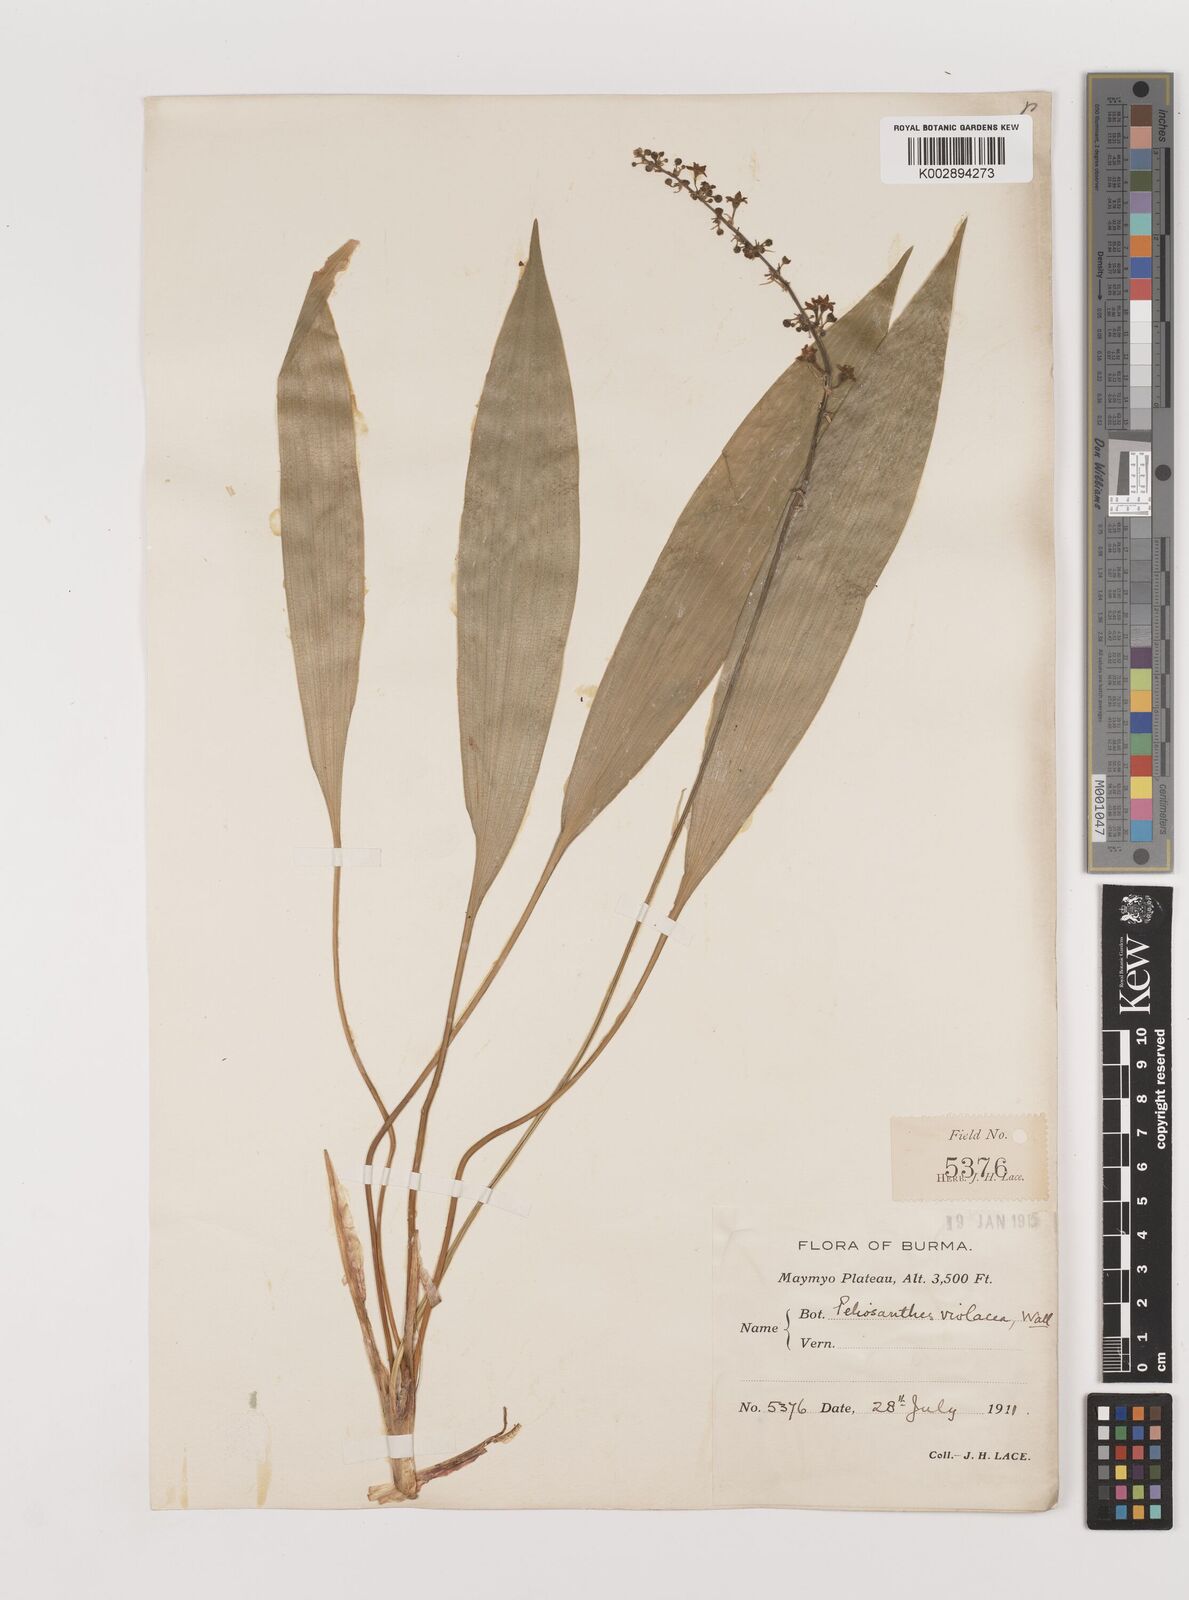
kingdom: Plantae
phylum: Tracheophyta
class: Liliopsida
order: Asparagales
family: Asparagaceae
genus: Peliosanthes
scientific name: Peliosanthes teta
